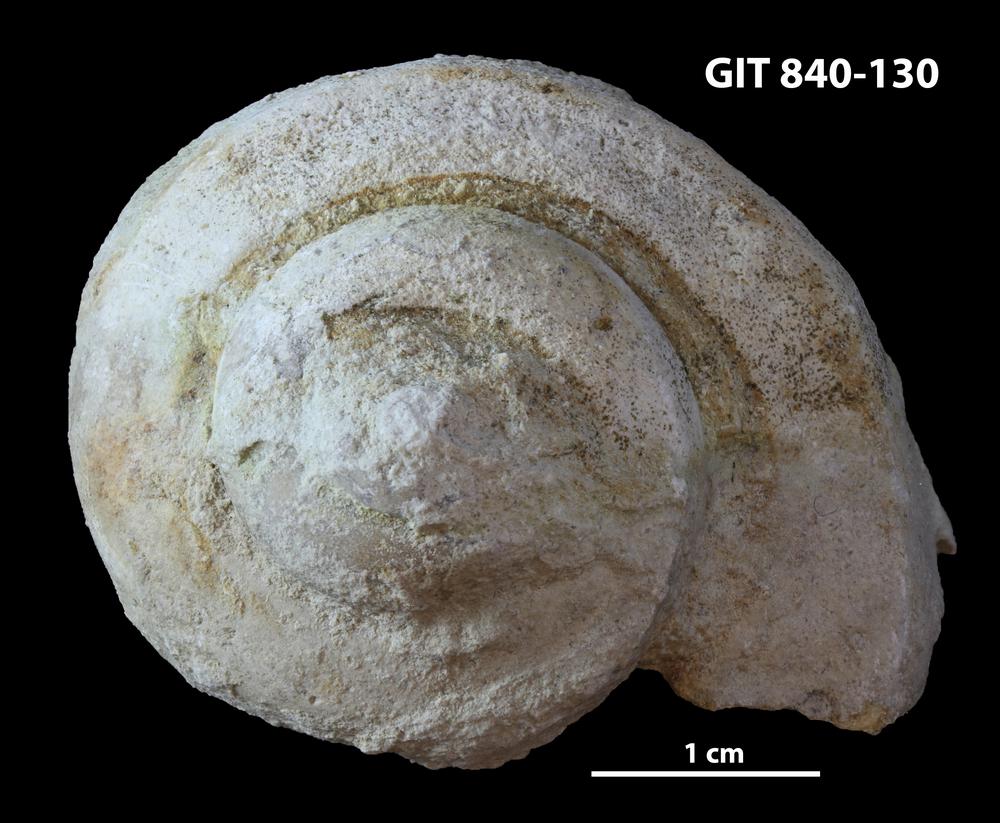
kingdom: Animalia
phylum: Mollusca
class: Gastropoda
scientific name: Gastropoda
